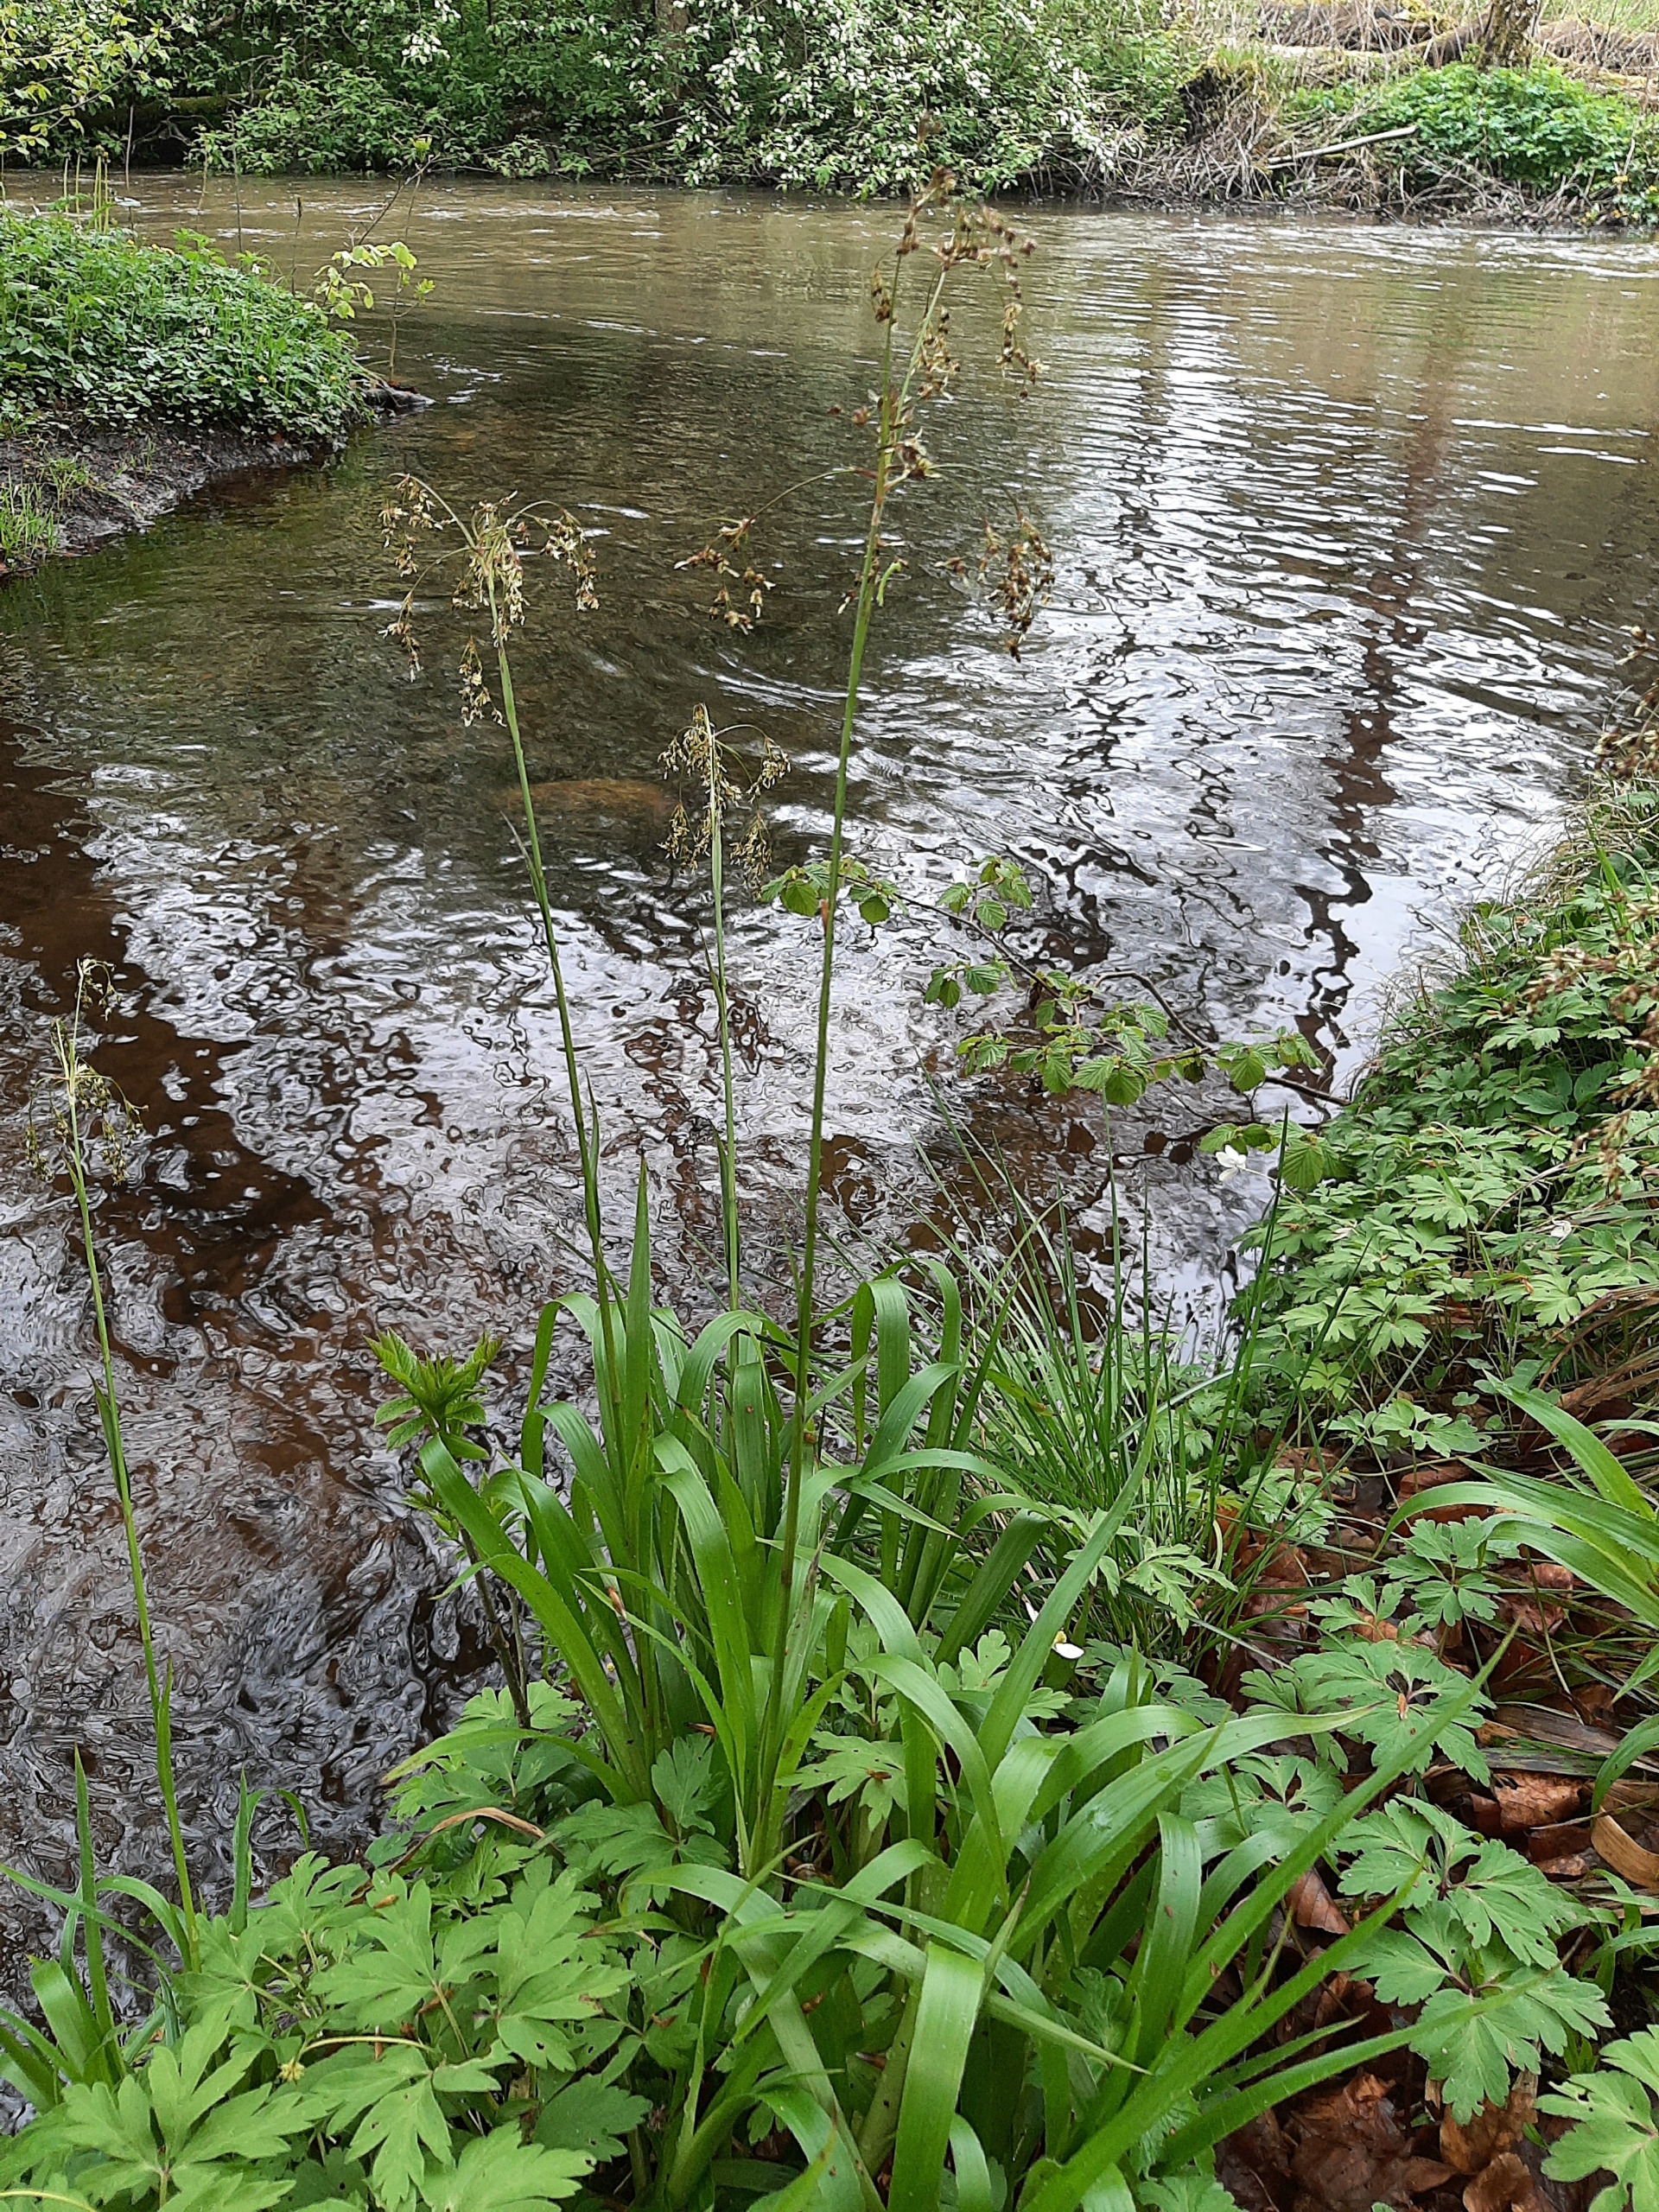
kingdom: Plantae
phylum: Tracheophyta
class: Liliopsida
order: Poales
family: Juncaceae
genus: Luzula
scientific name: Luzula sylvatica
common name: Stor frytle
